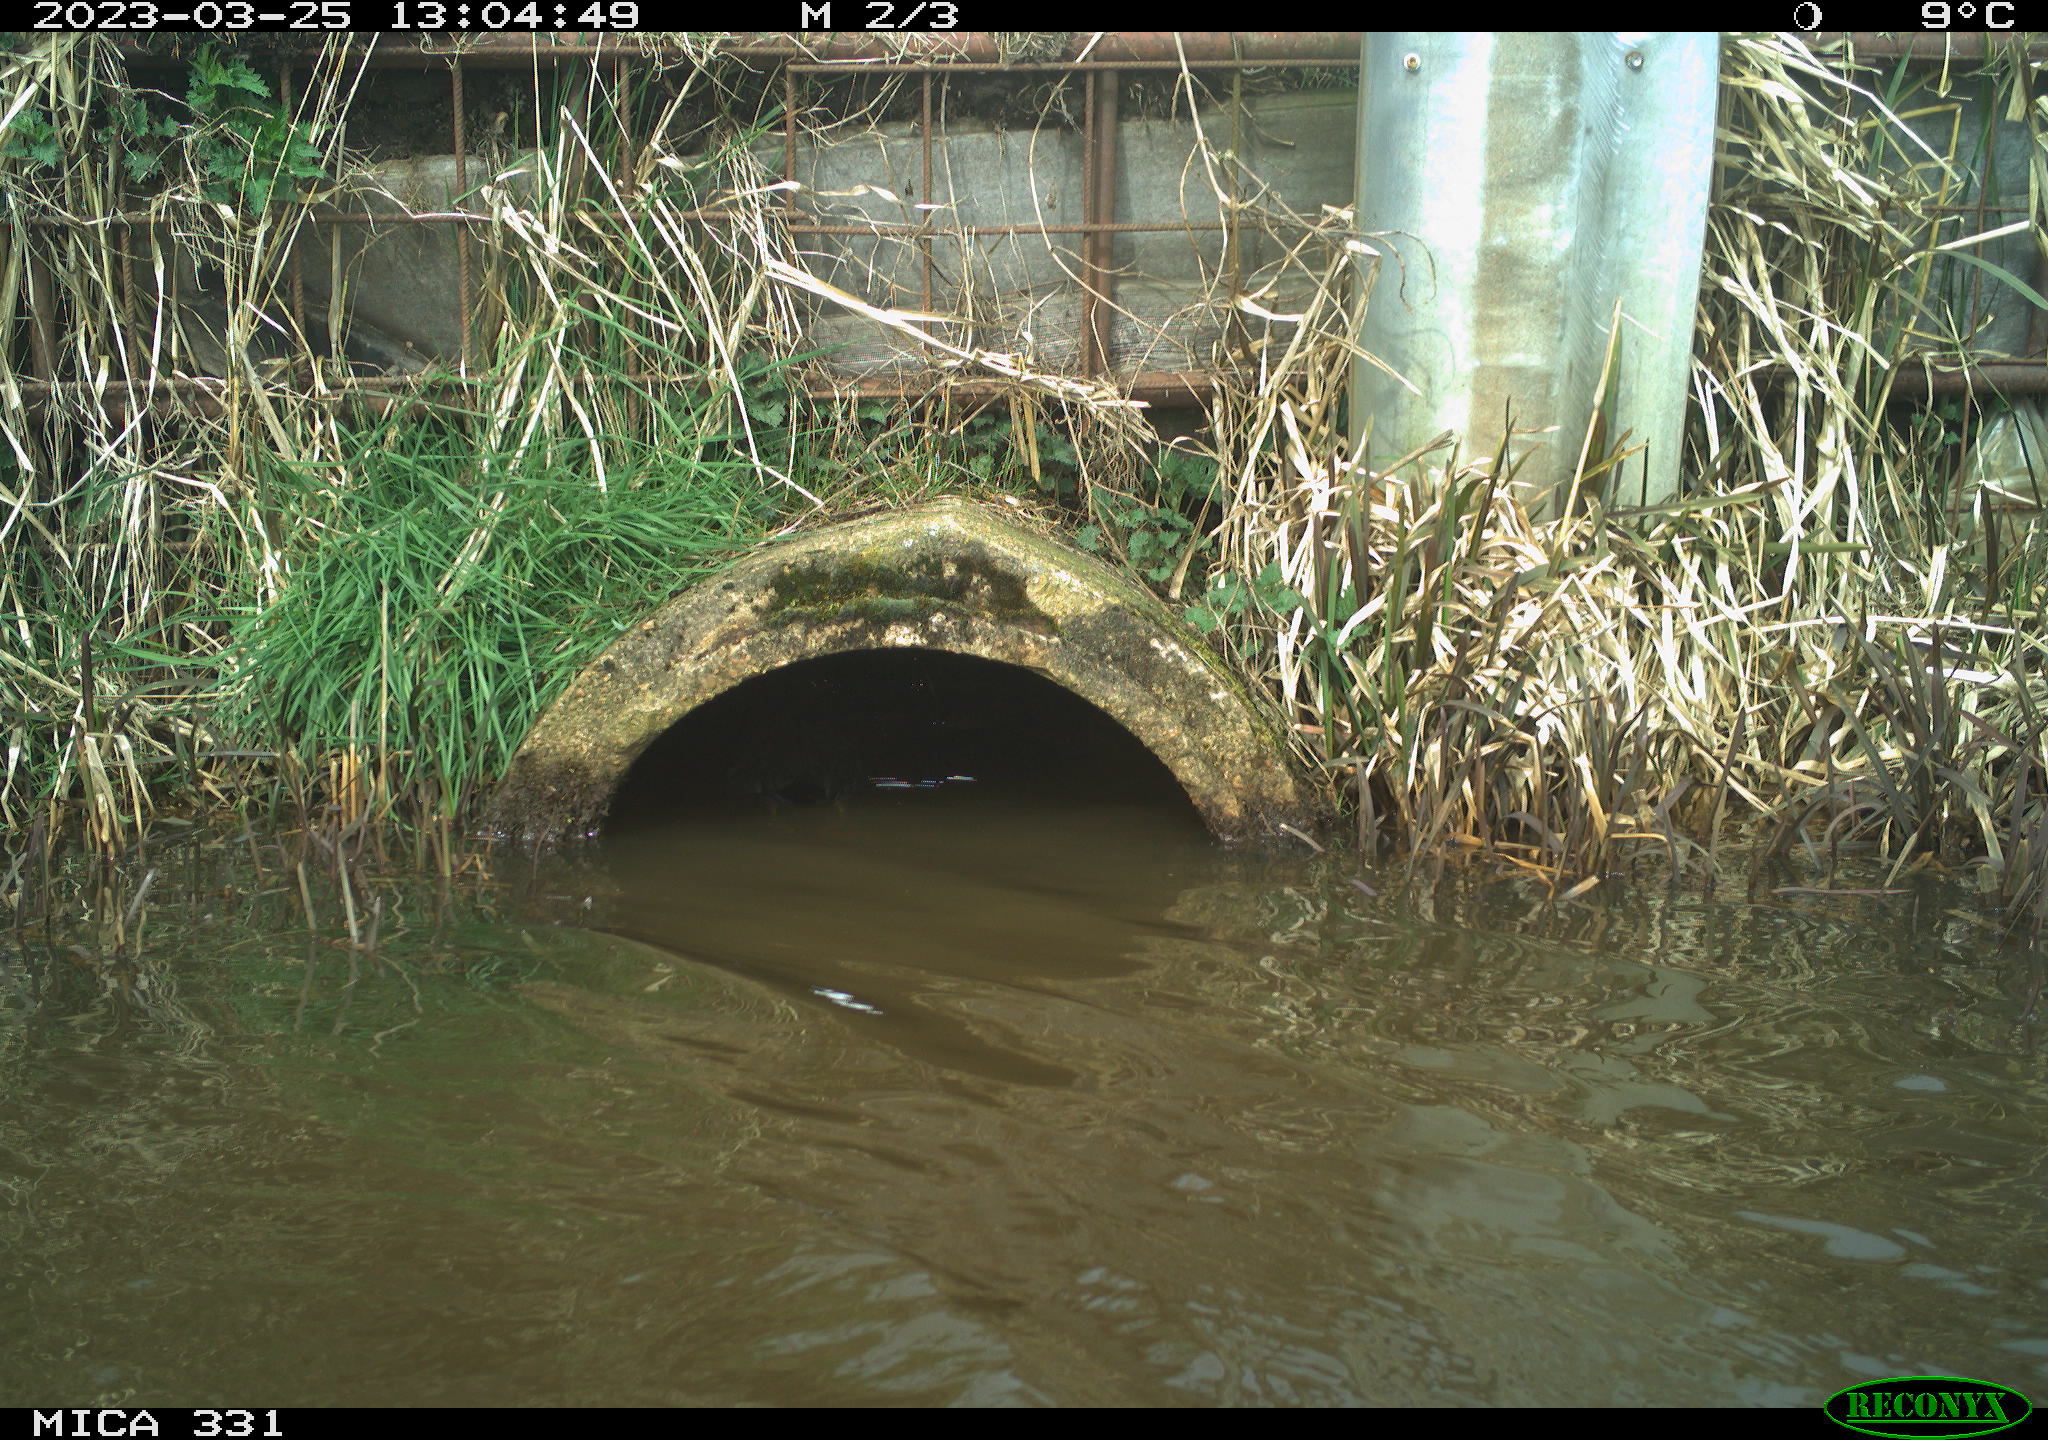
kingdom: Animalia
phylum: Chordata
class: Aves
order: Gruiformes
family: Rallidae
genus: Fulica
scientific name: Fulica atra
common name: Eurasian coot
